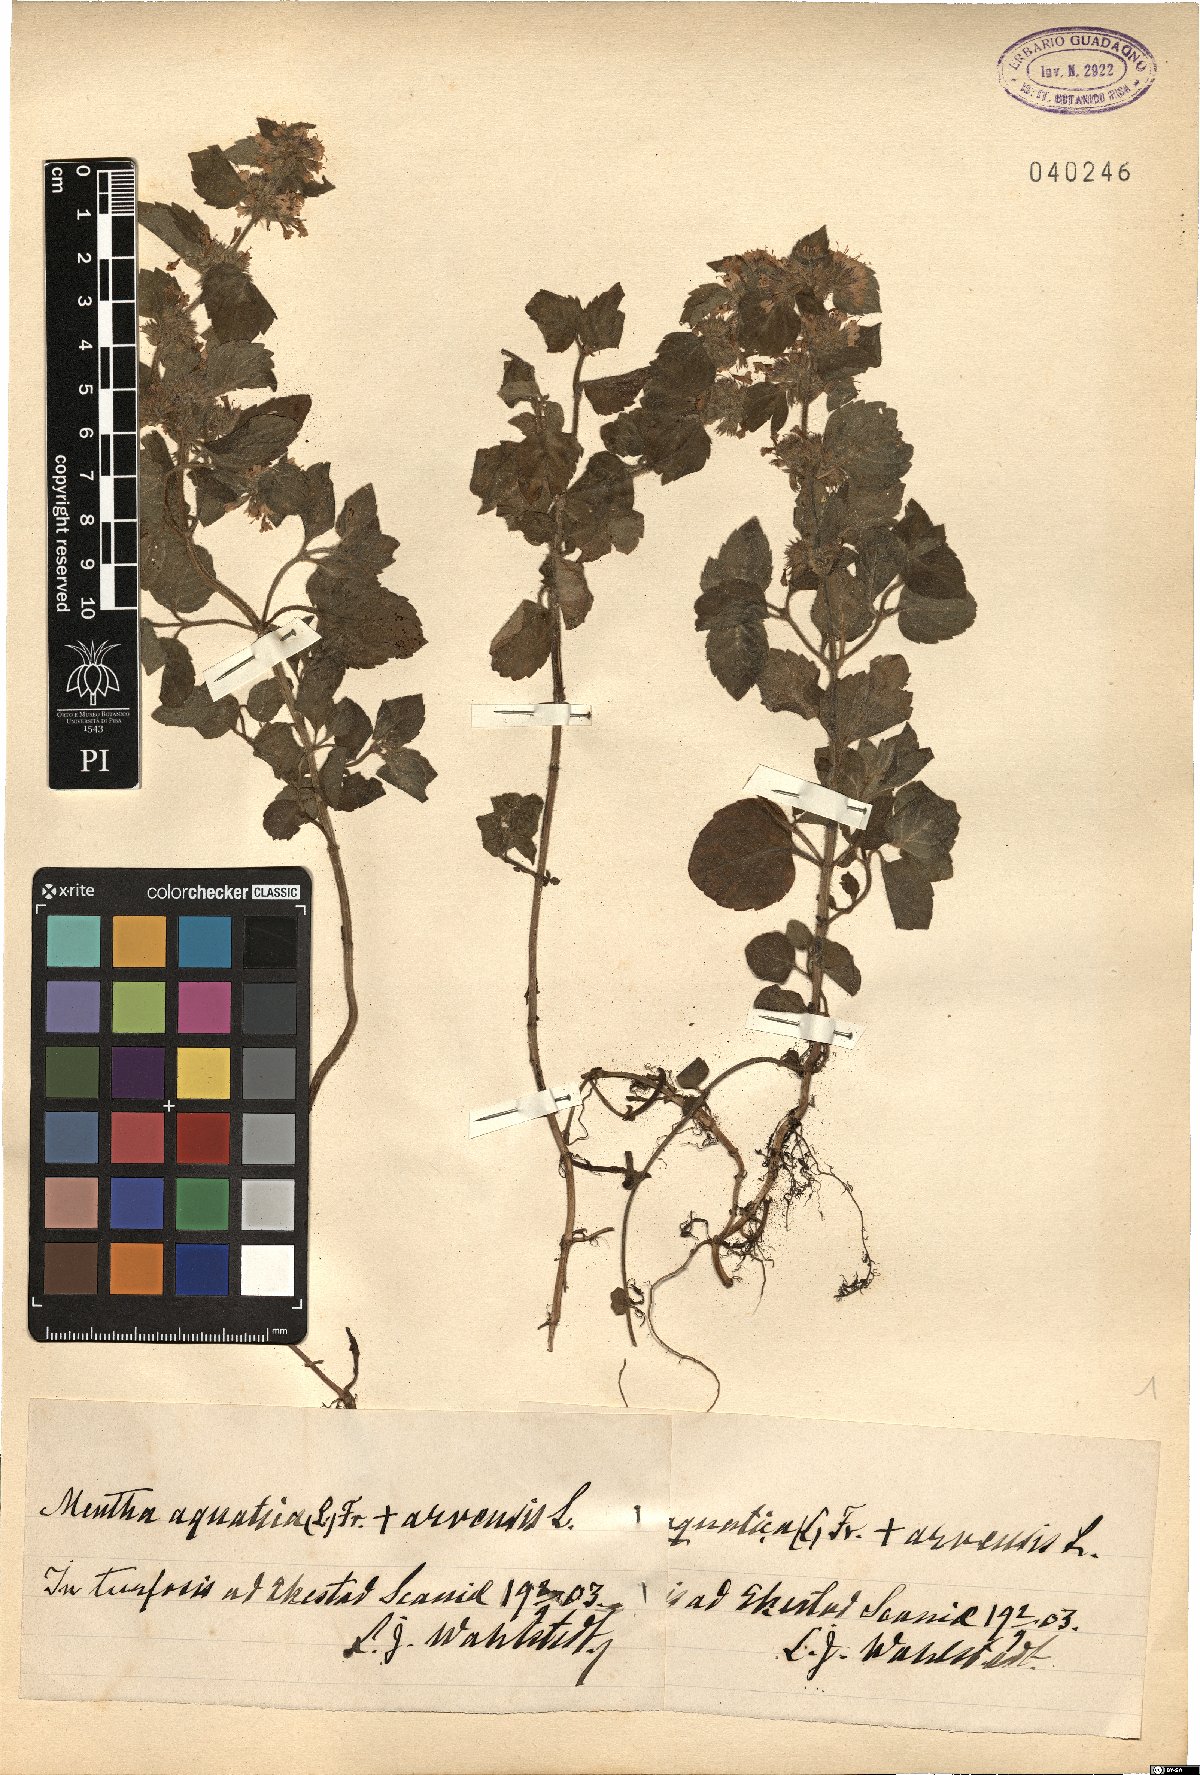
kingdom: Plantae
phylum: Tracheophyta
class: Magnoliopsida
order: Lamiales
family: Lamiaceae
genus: Mentha
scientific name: Mentha aquatica
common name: Water mint
